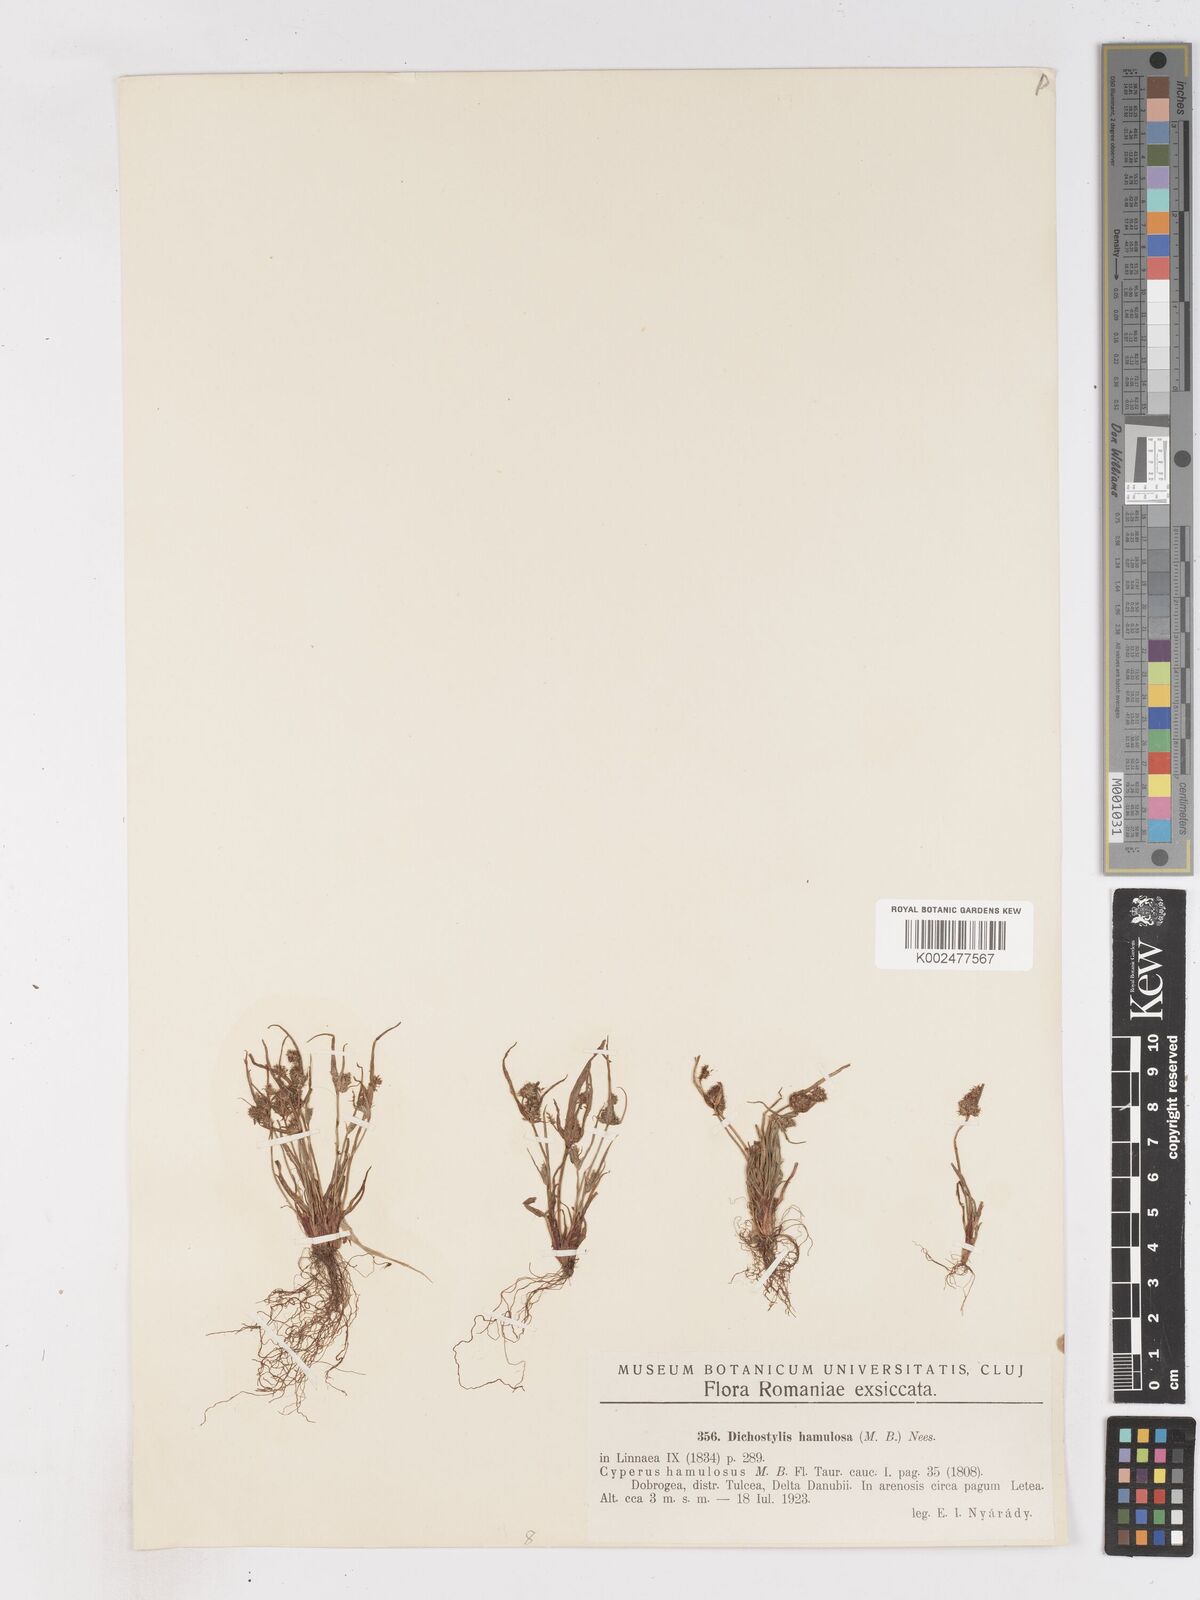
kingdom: Plantae
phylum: Tracheophyta
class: Liliopsida
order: Poales
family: Cyperaceae
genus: Cyperus
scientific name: Cyperus hamulosus
